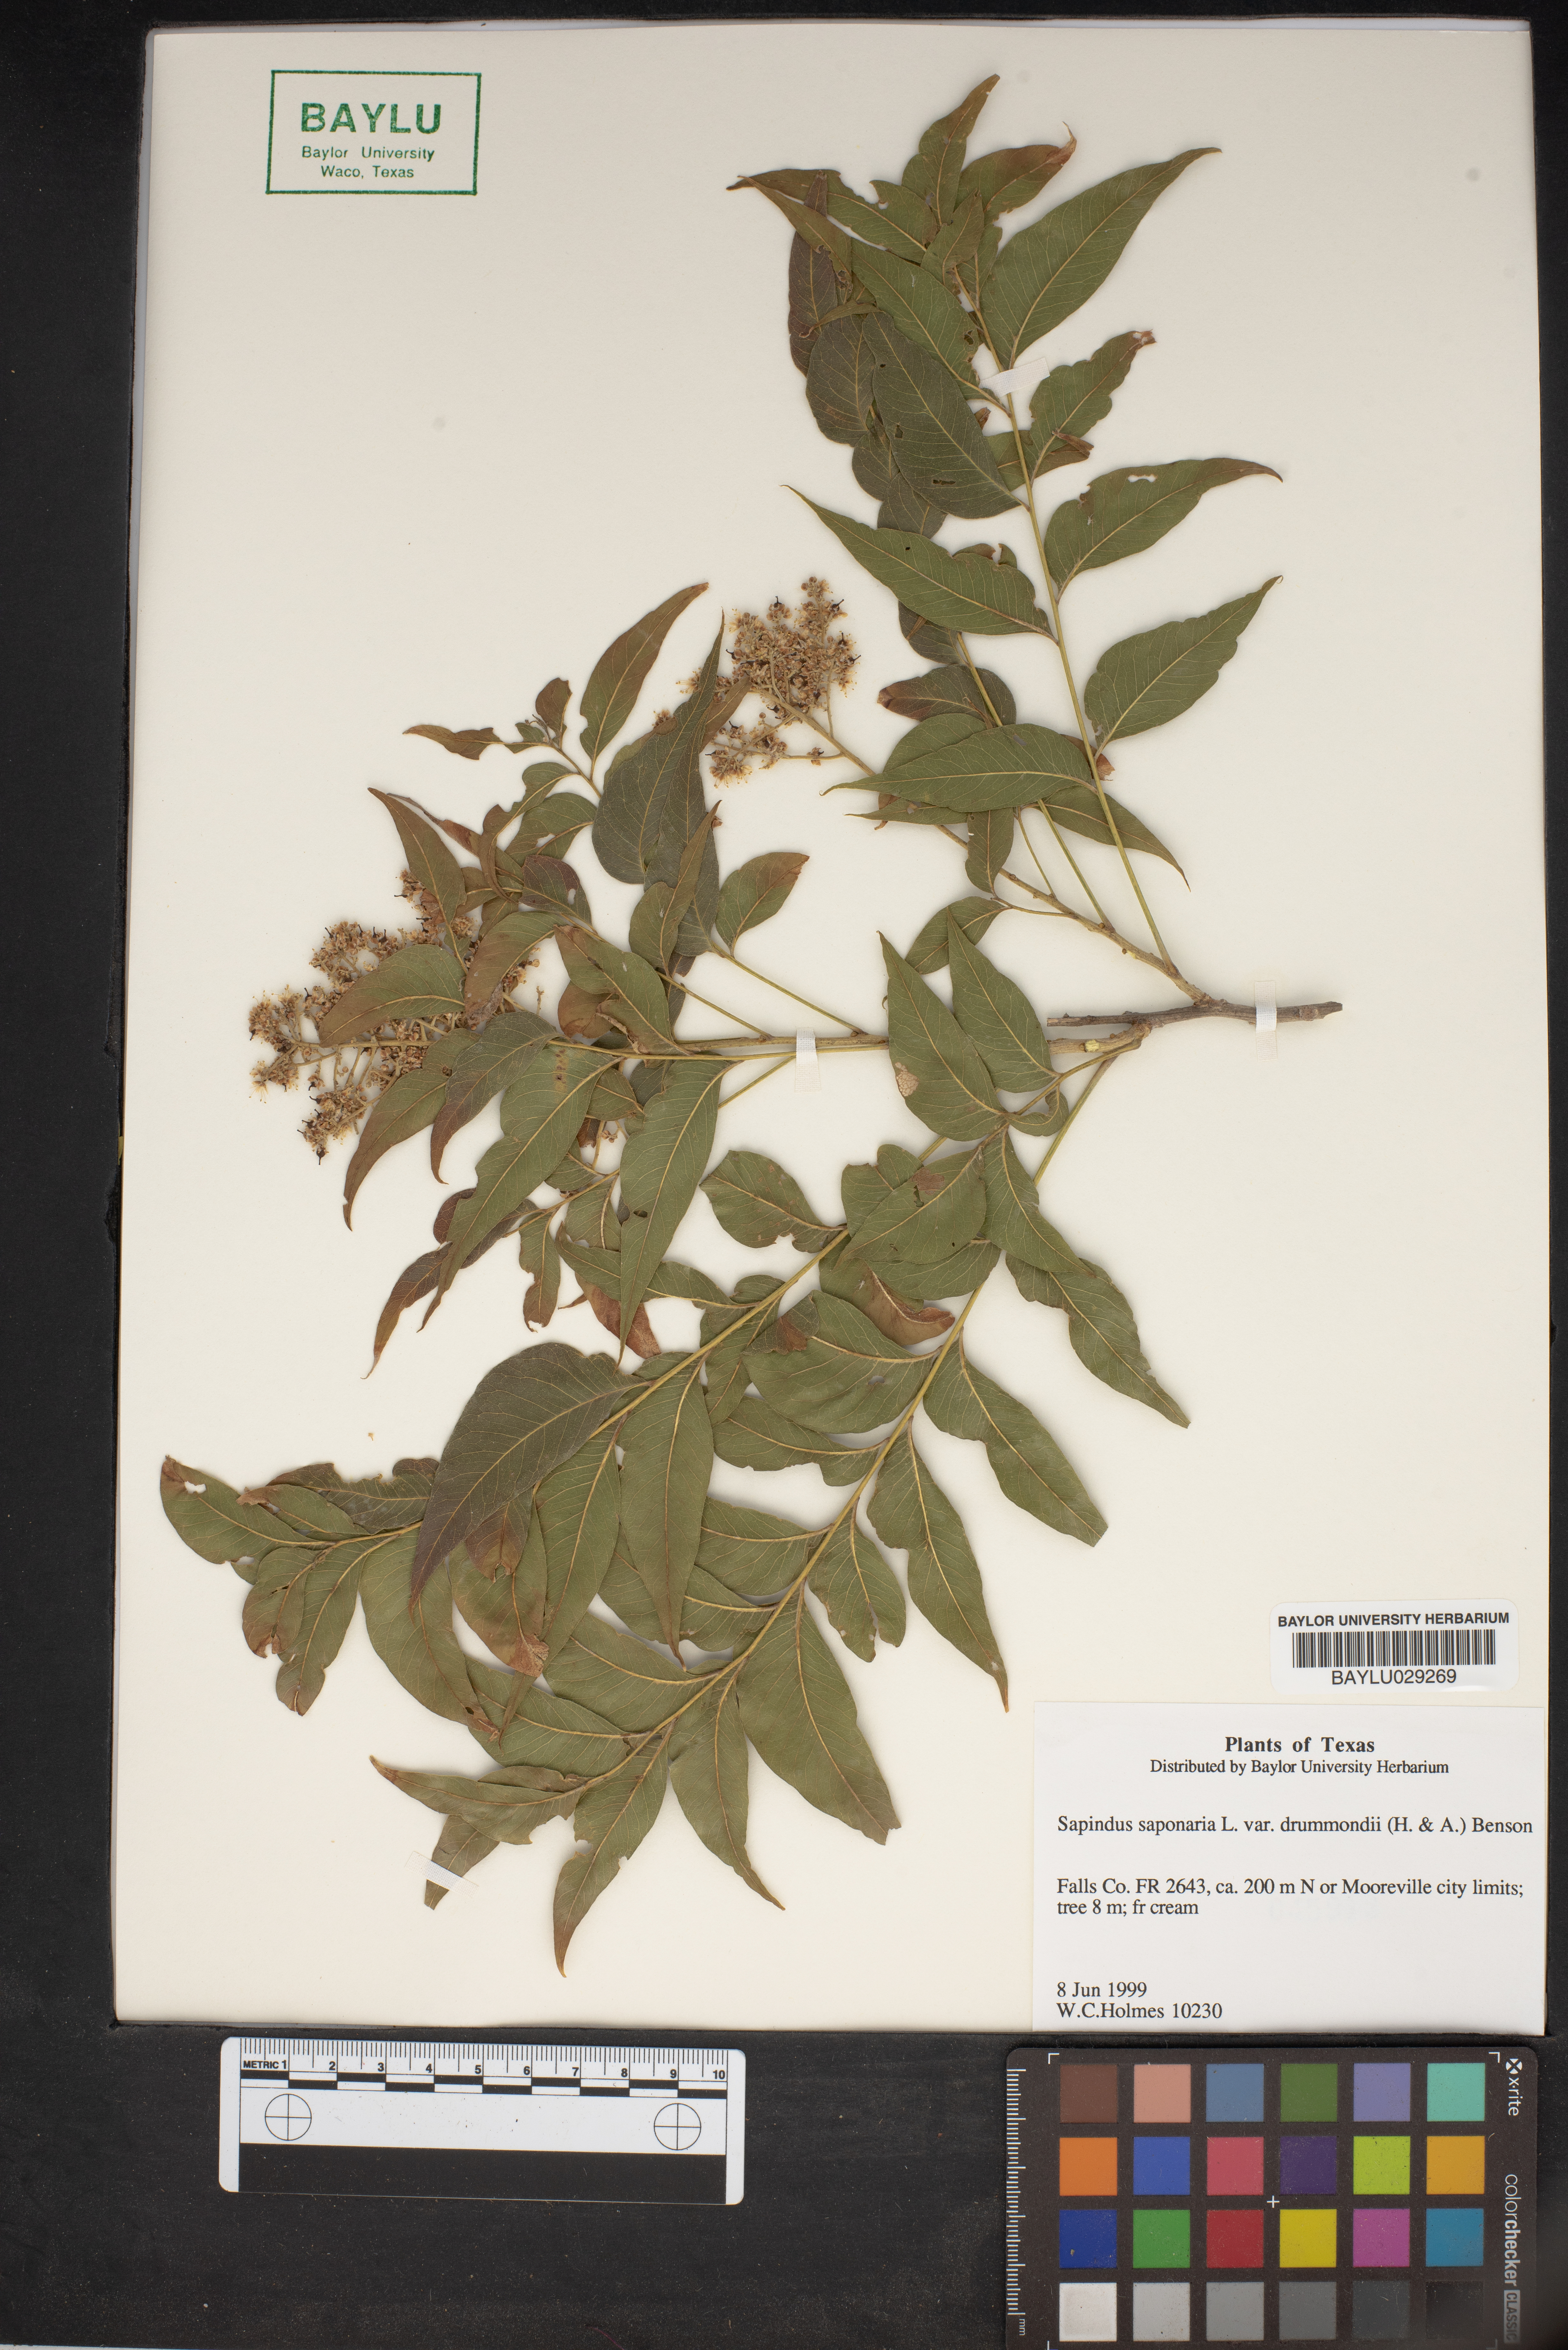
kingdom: Plantae
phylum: Tracheophyta
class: Magnoliopsida
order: Sapindales
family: Sapindaceae
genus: Sapindus
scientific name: Sapindus drummondii
